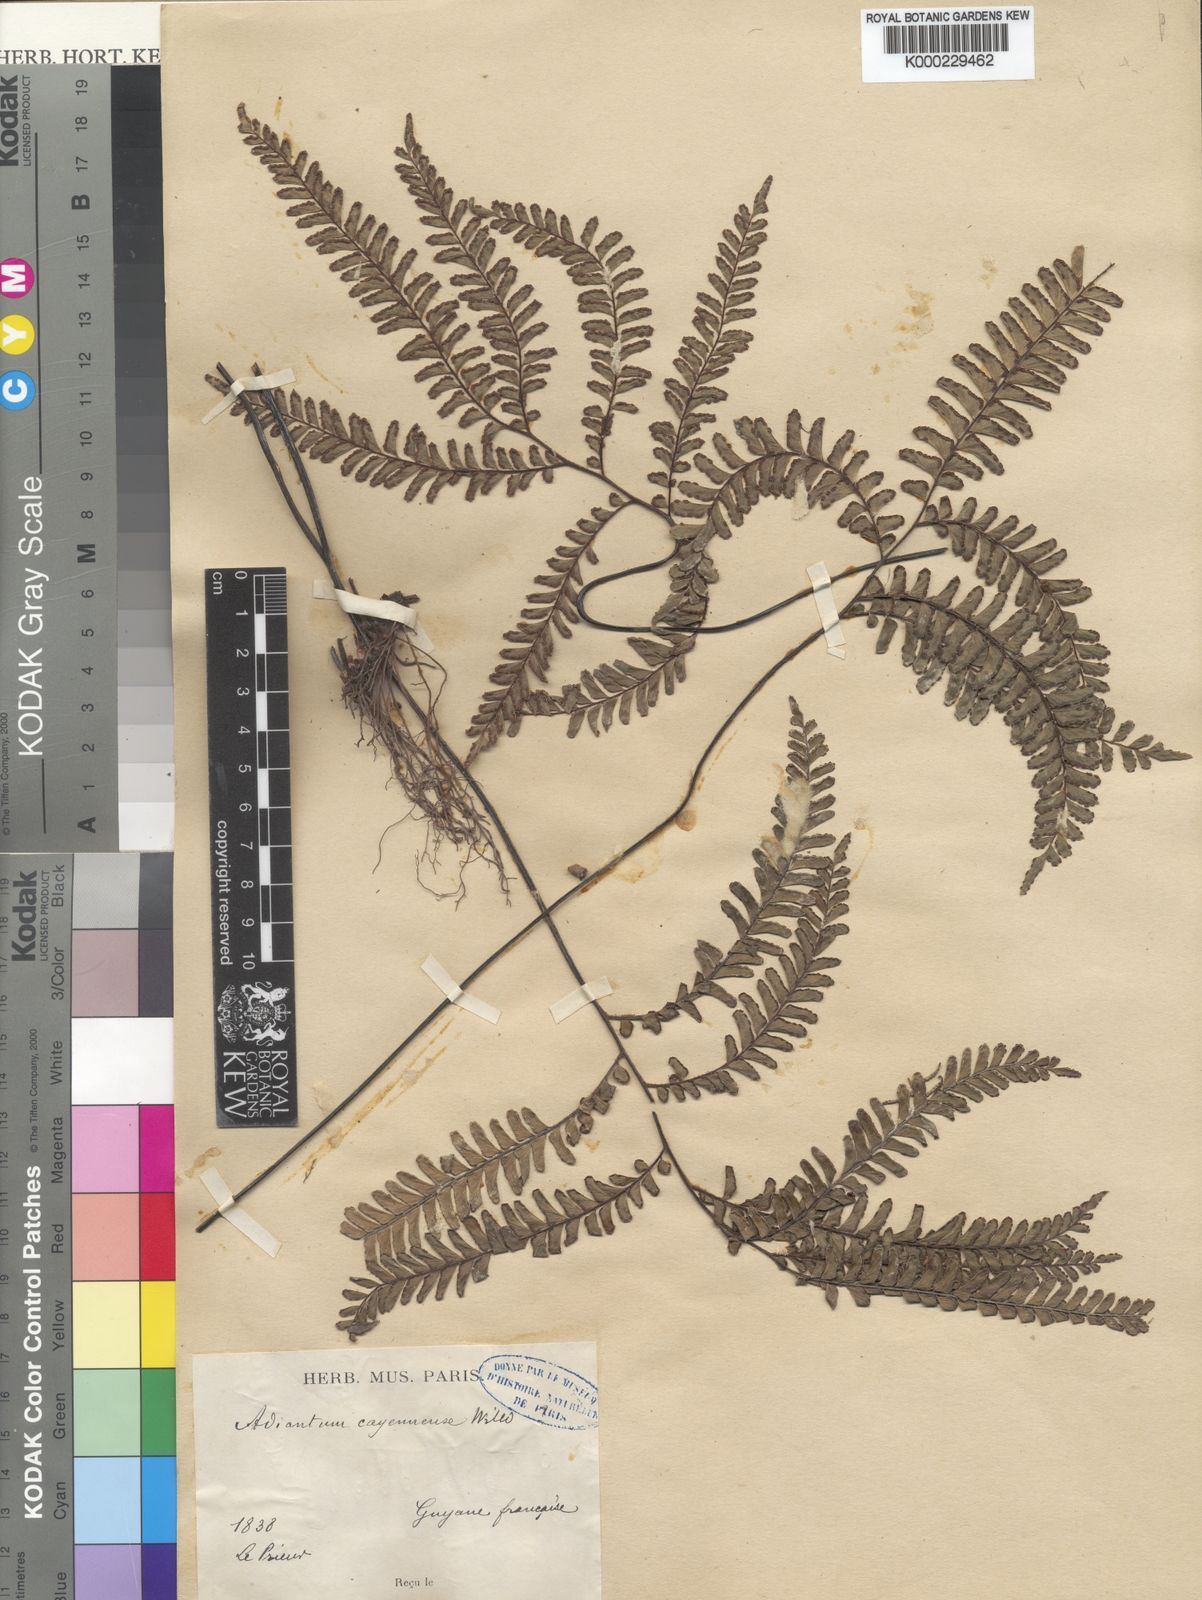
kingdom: Plantae
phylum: Tracheophyta
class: Polypodiopsida
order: Polypodiales
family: Pteridaceae
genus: Adiantum
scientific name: Adiantum cajennense
